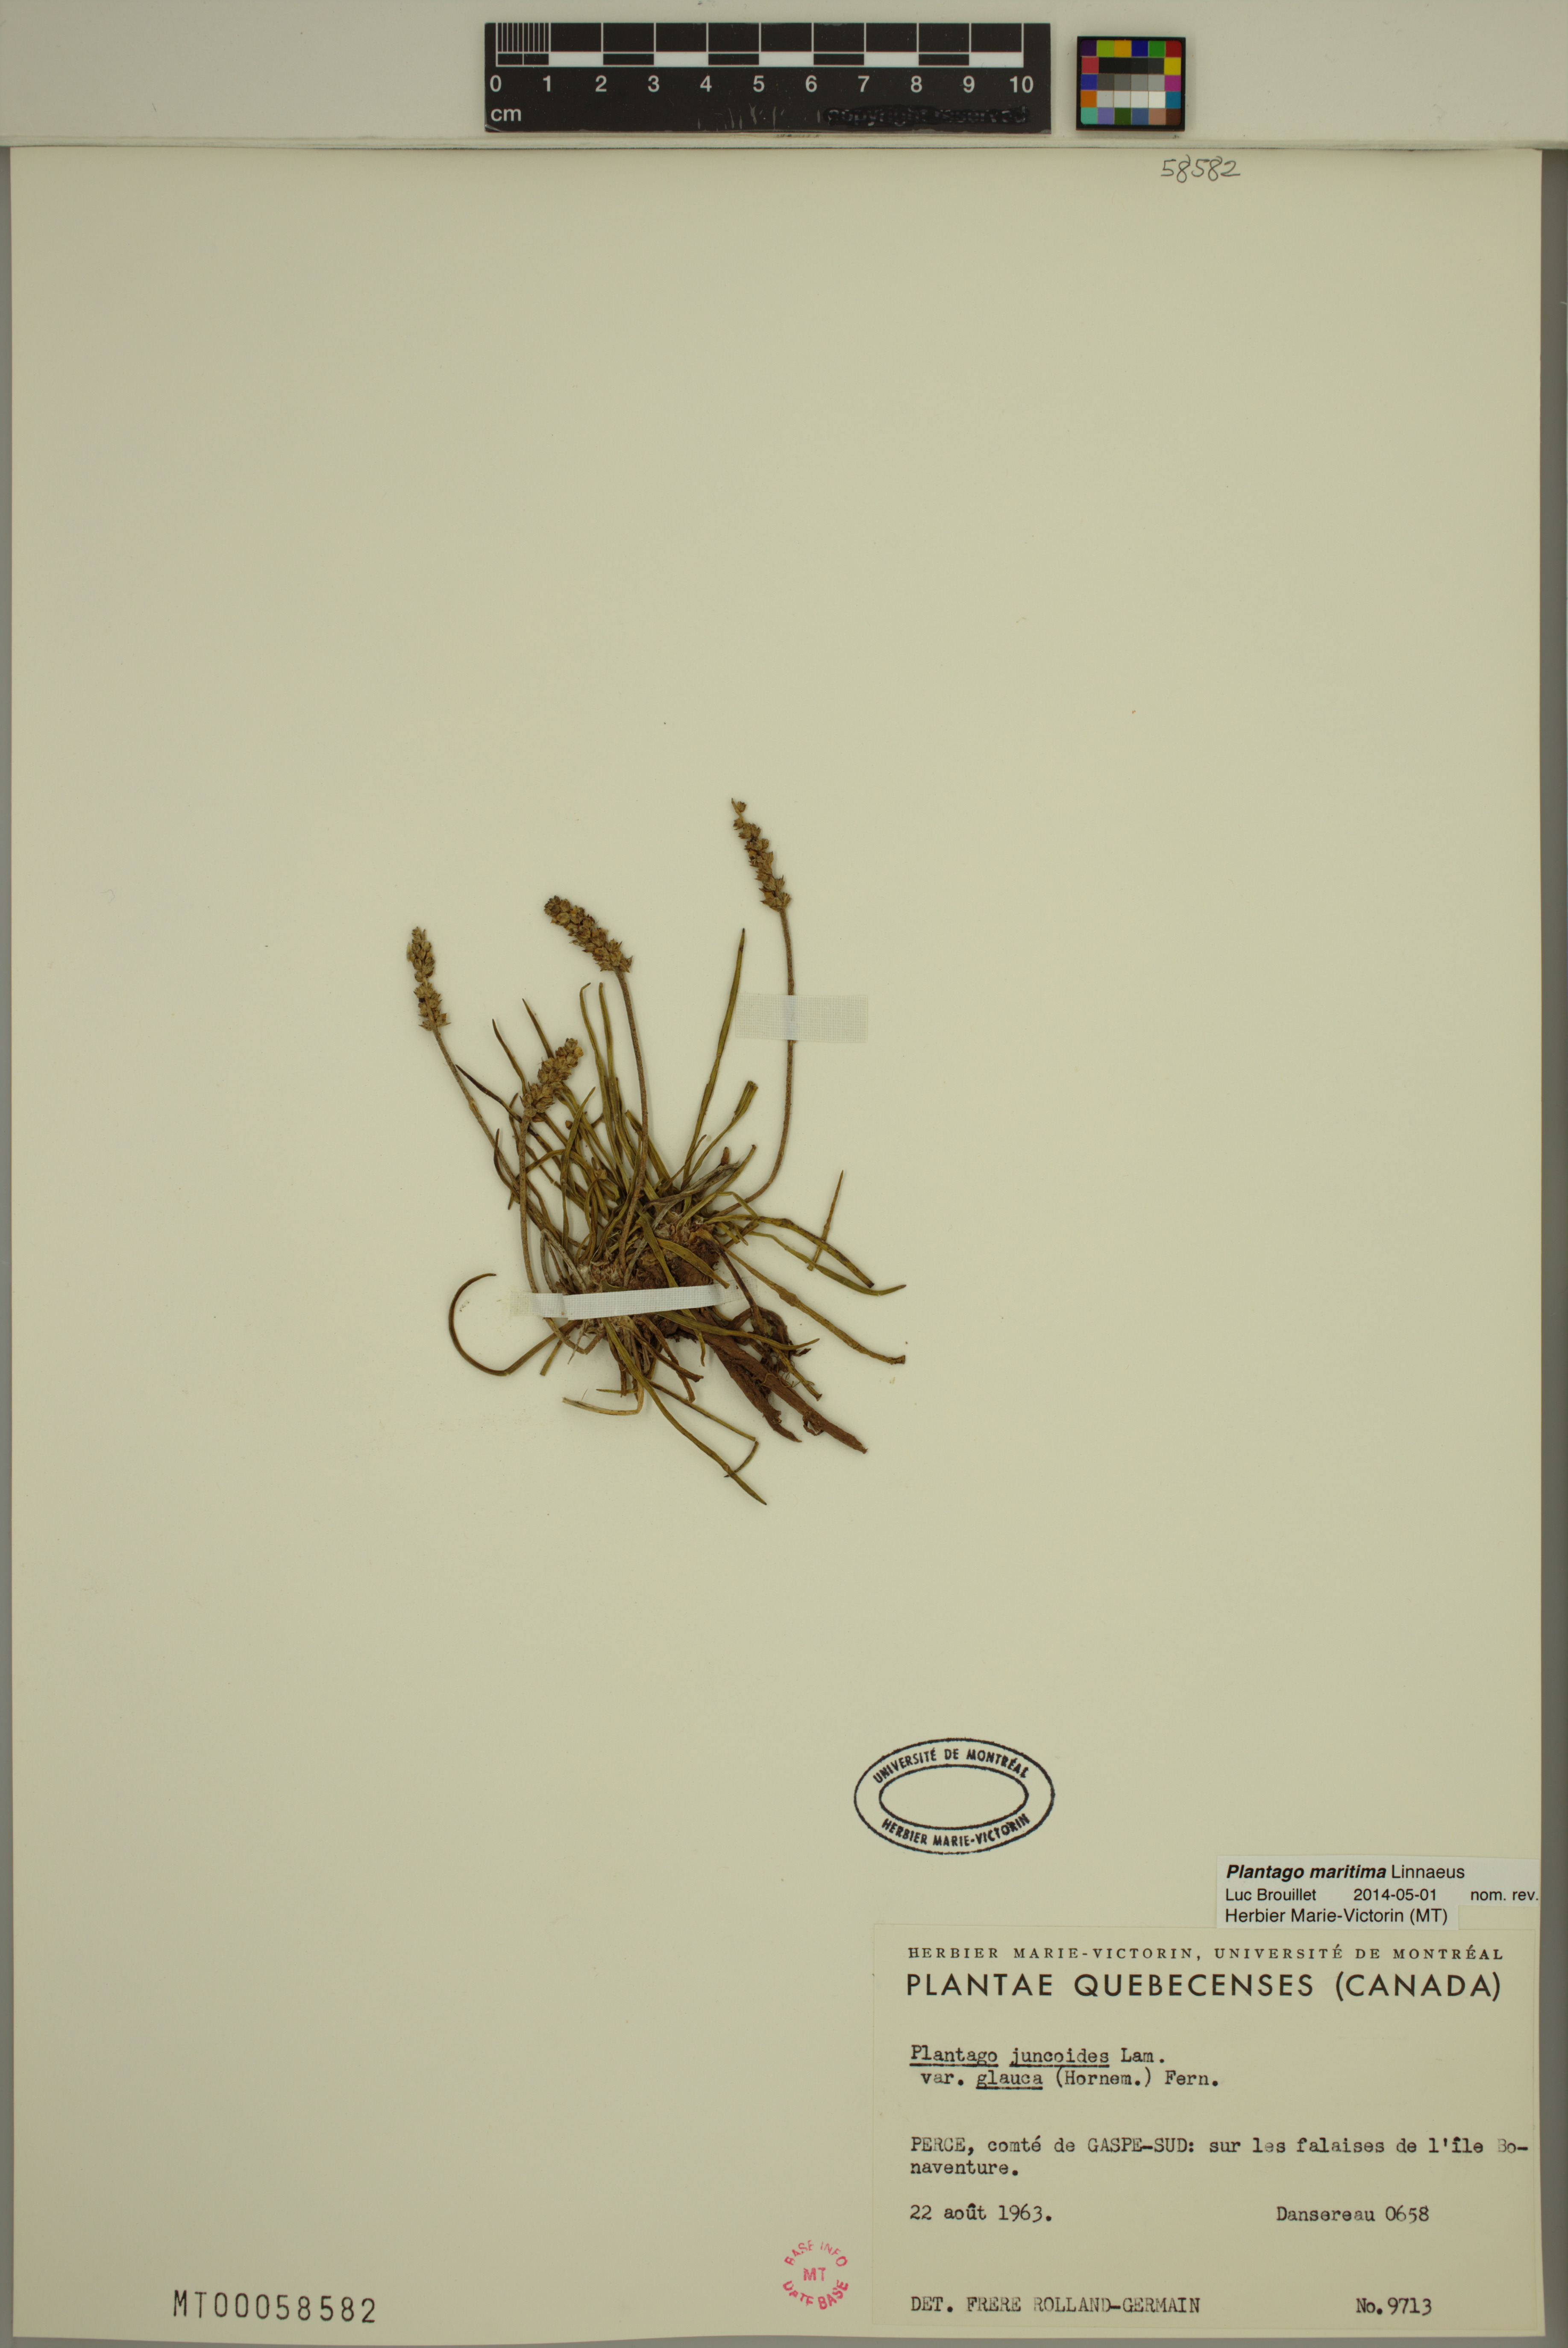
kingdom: Plantae
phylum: Tracheophyta
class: Magnoliopsida
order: Lamiales
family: Plantaginaceae
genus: Plantago
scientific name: Plantago maritima
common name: Sea plantain
